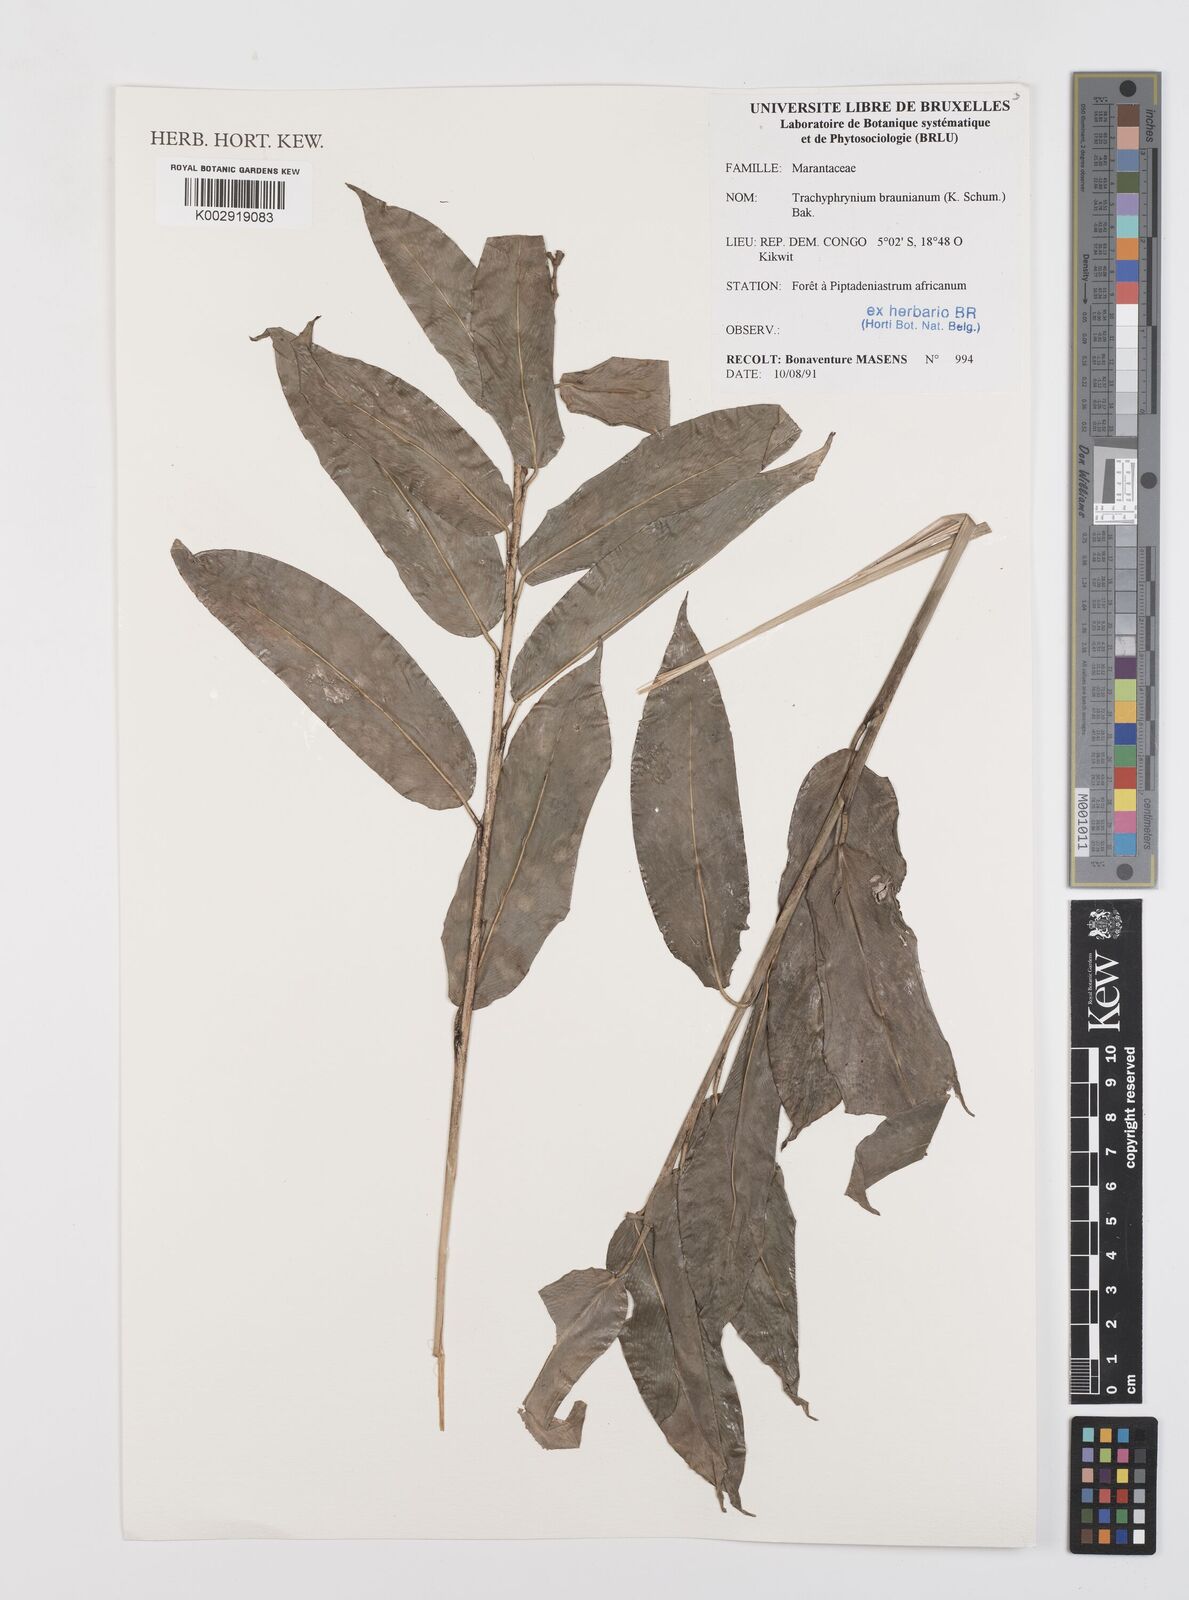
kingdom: Plantae
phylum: Tracheophyta
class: Liliopsida
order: Zingiberales
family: Marantaceae
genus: Trachyphrynium
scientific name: Trachyphrynium braunianum
